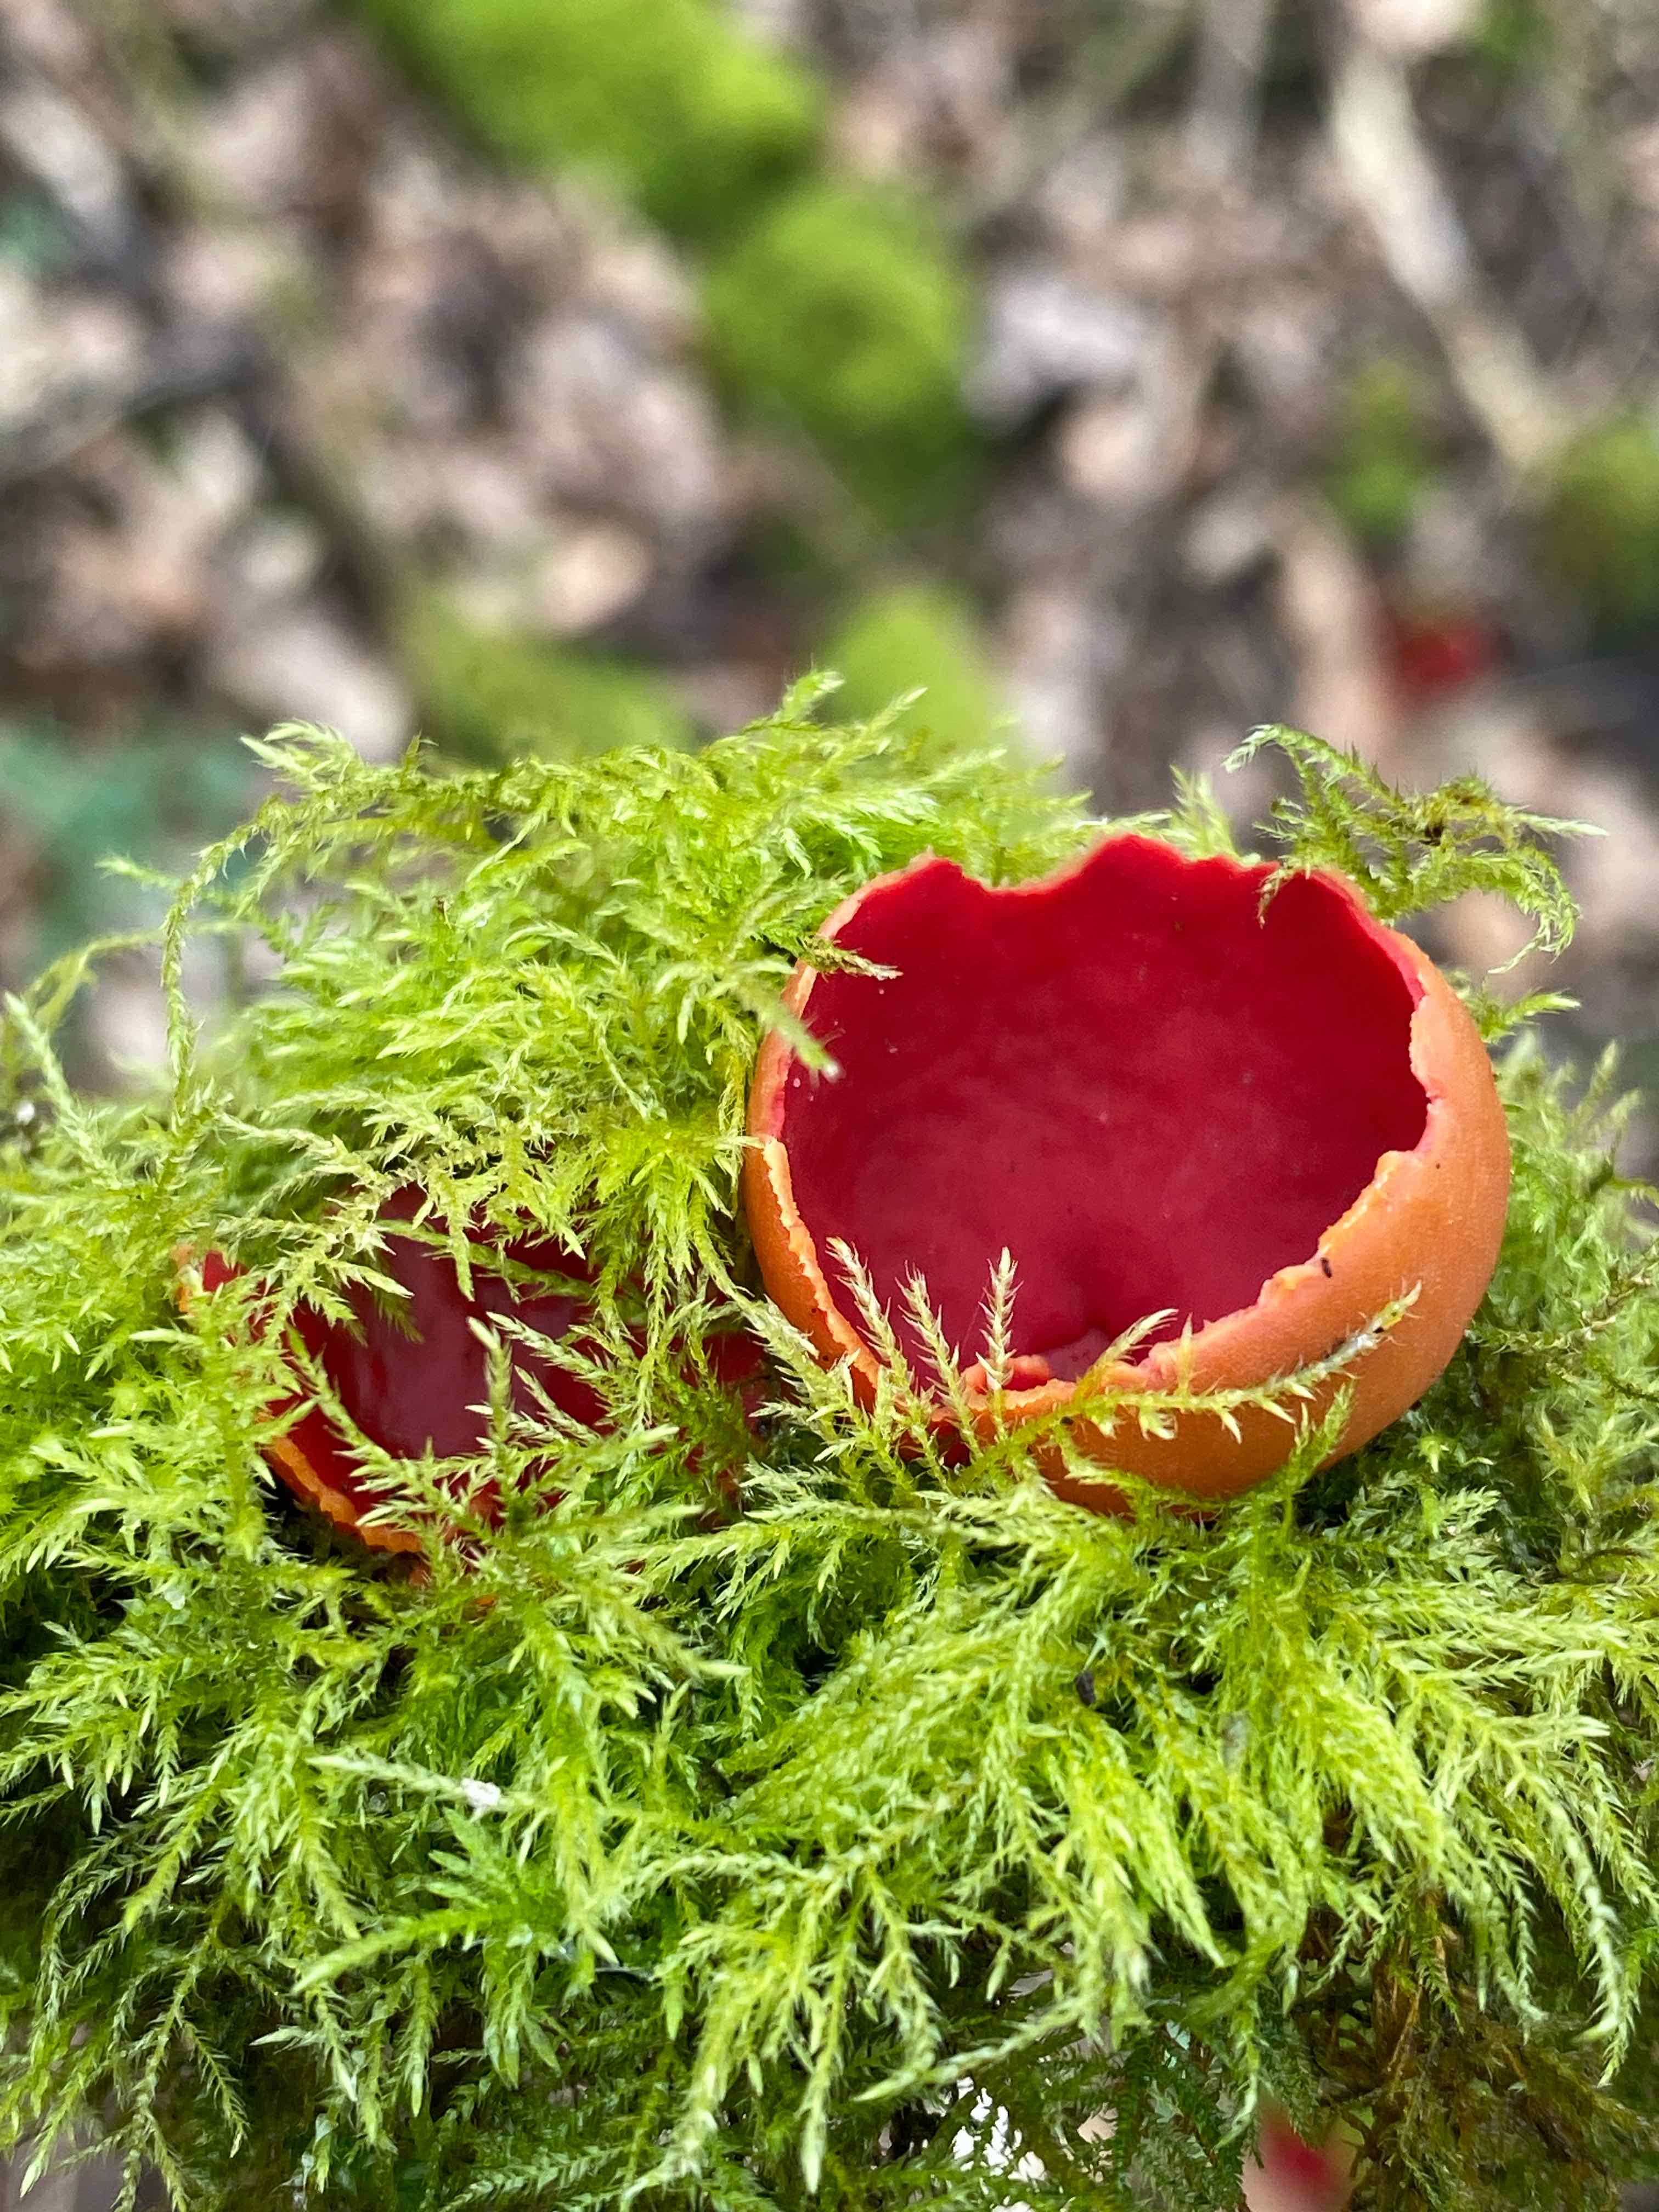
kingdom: Fungi
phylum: Ascomycota
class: Pezizomycetes
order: Pezizales
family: Sarcoscyphaceae
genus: Sarcoscypha
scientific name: Sarcoscypha austriaca
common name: krølhåret pragtbæger
